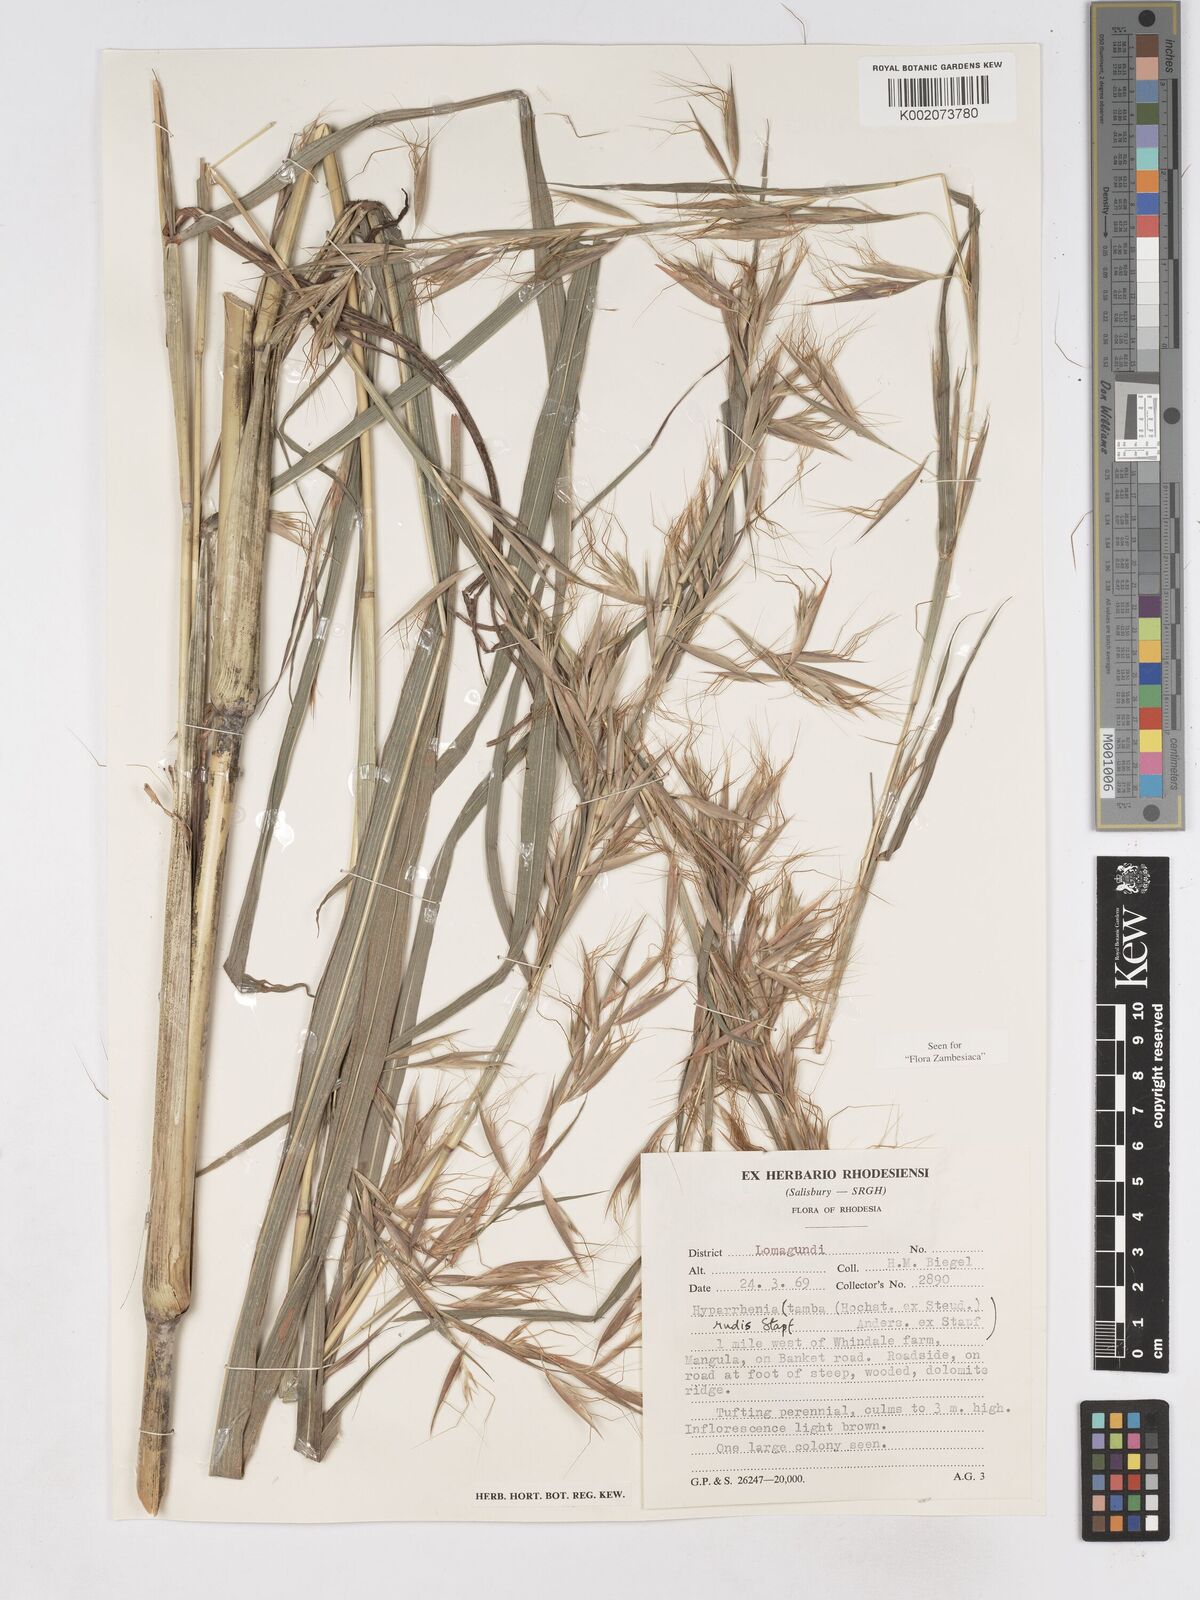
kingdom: Plantae
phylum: Tracheophyta
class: Liliopsida
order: Poales
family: Poaceae
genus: Hyparrhenia
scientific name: Hyparrhenia rudis
